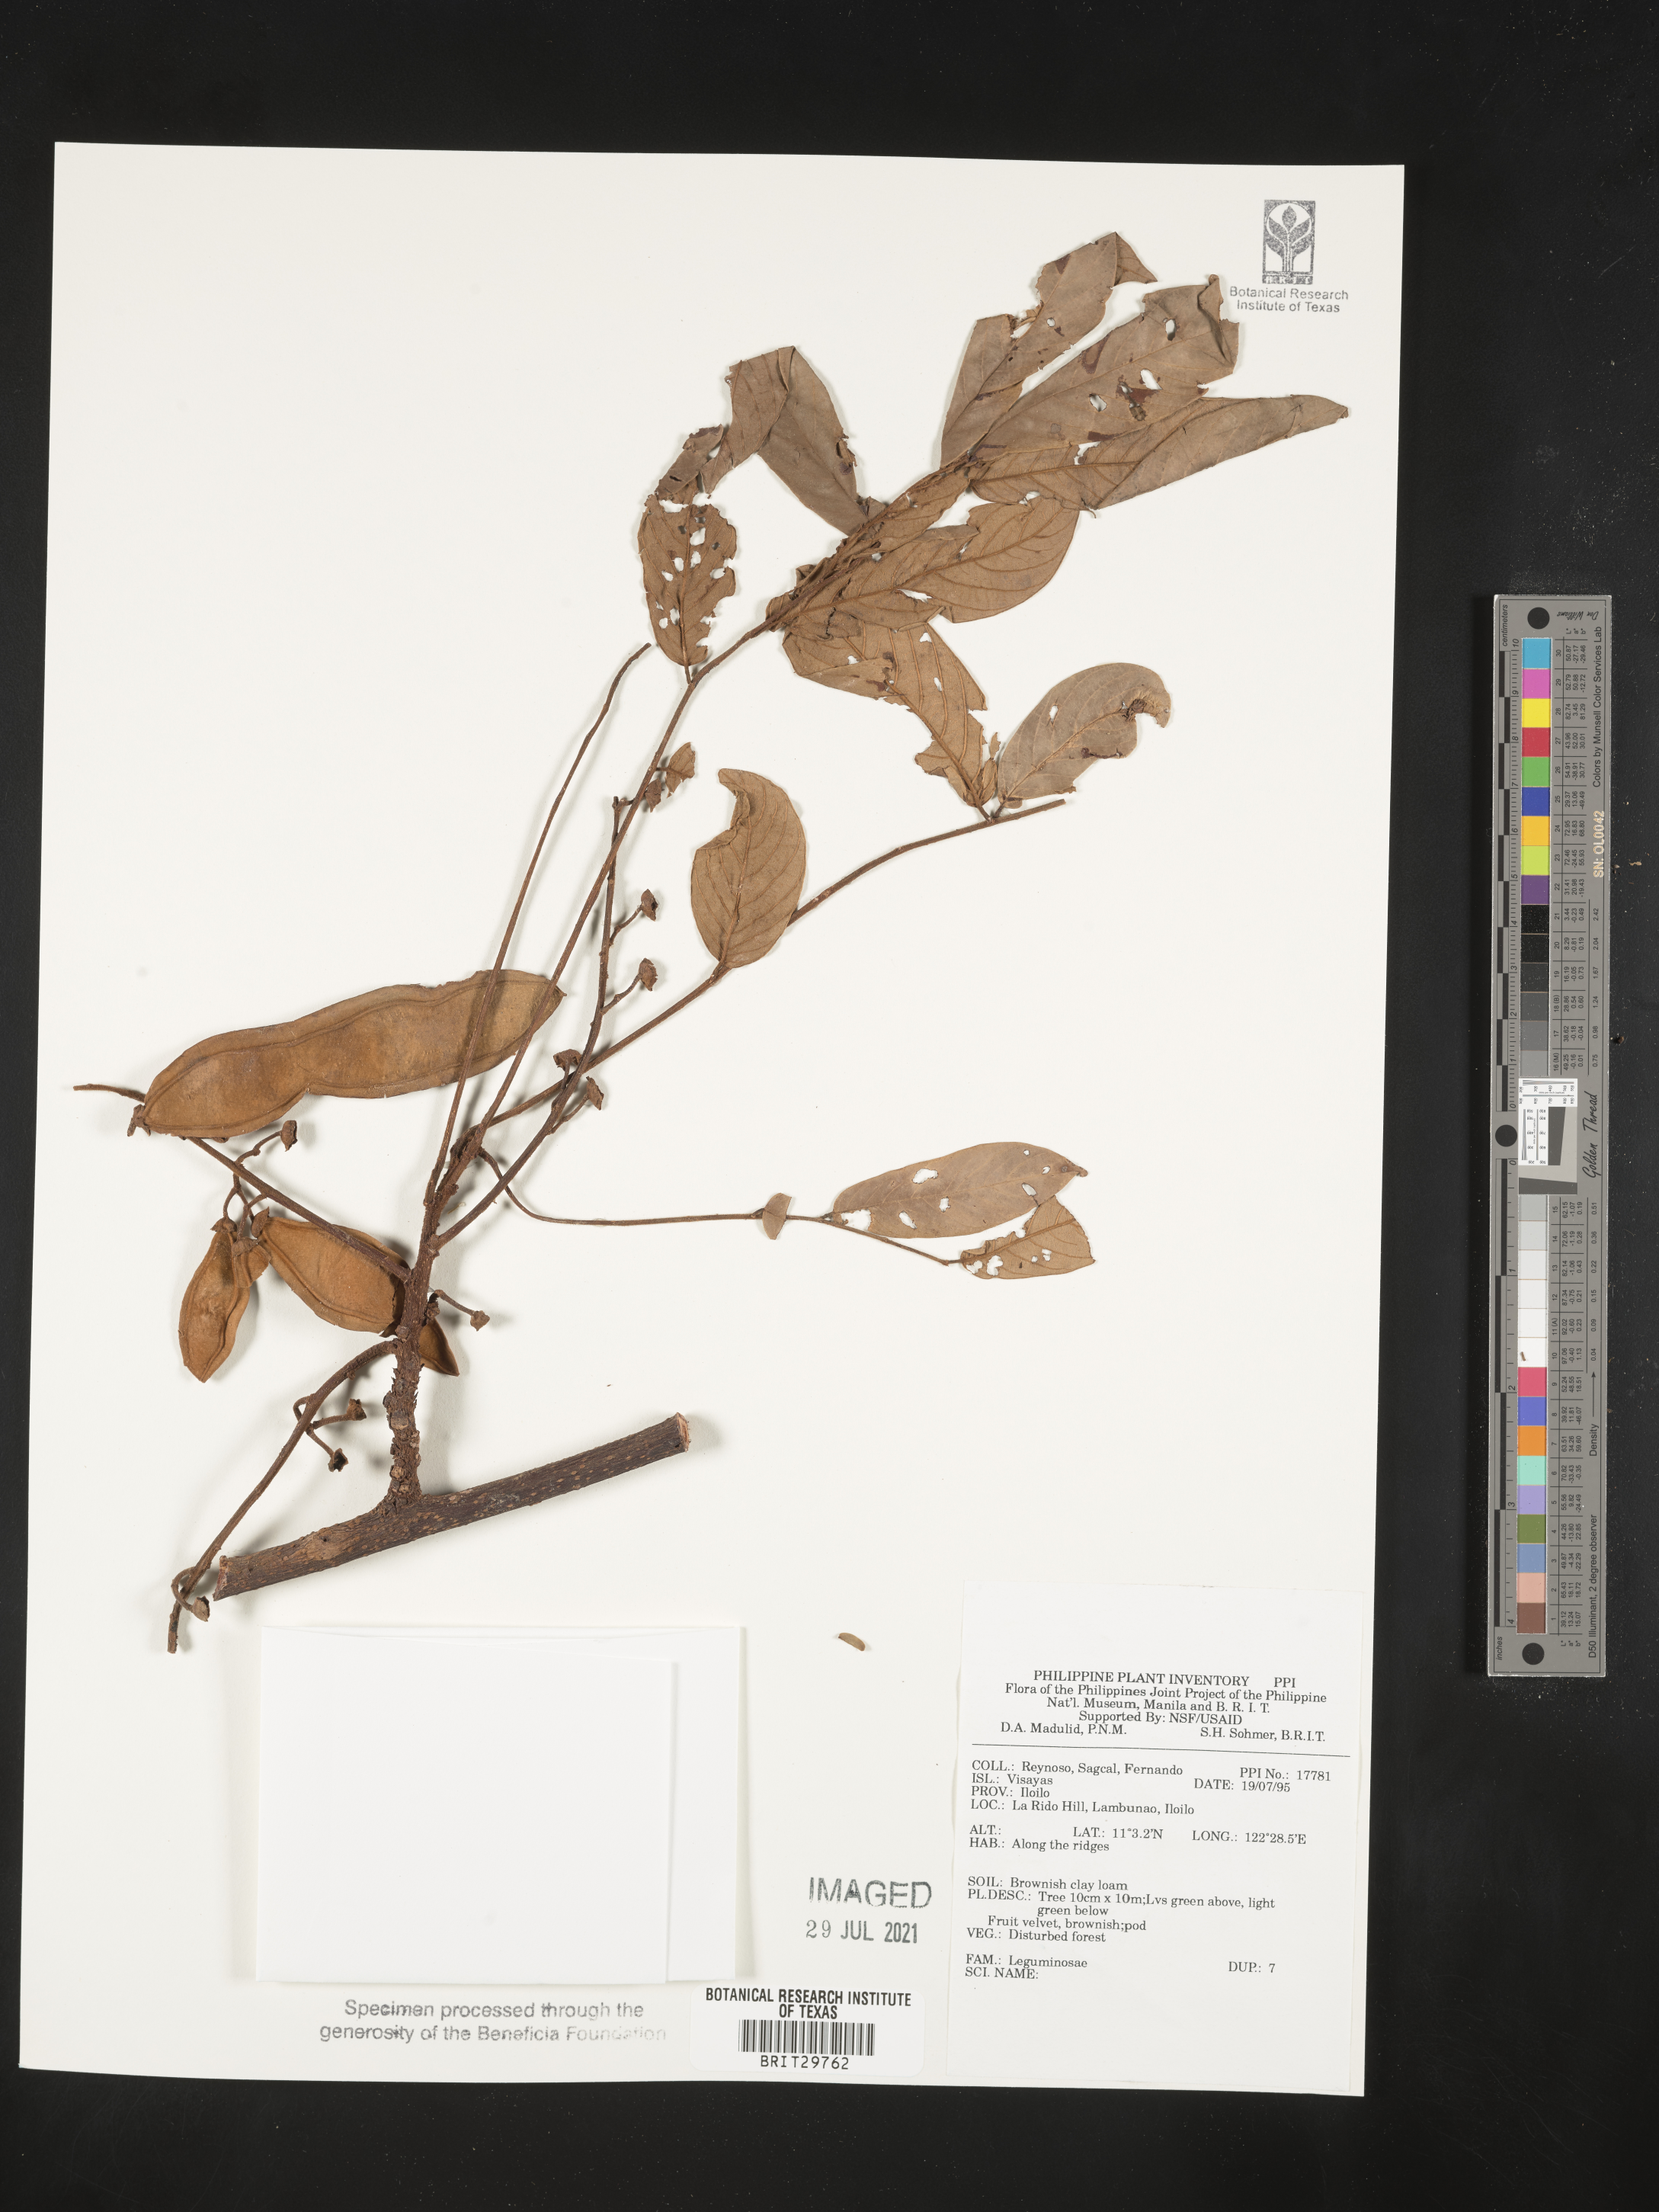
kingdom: Plantae
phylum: Tracheophyta
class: Magnoliopsida
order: Fabales
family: Fabaceae
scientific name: Fabaceae
